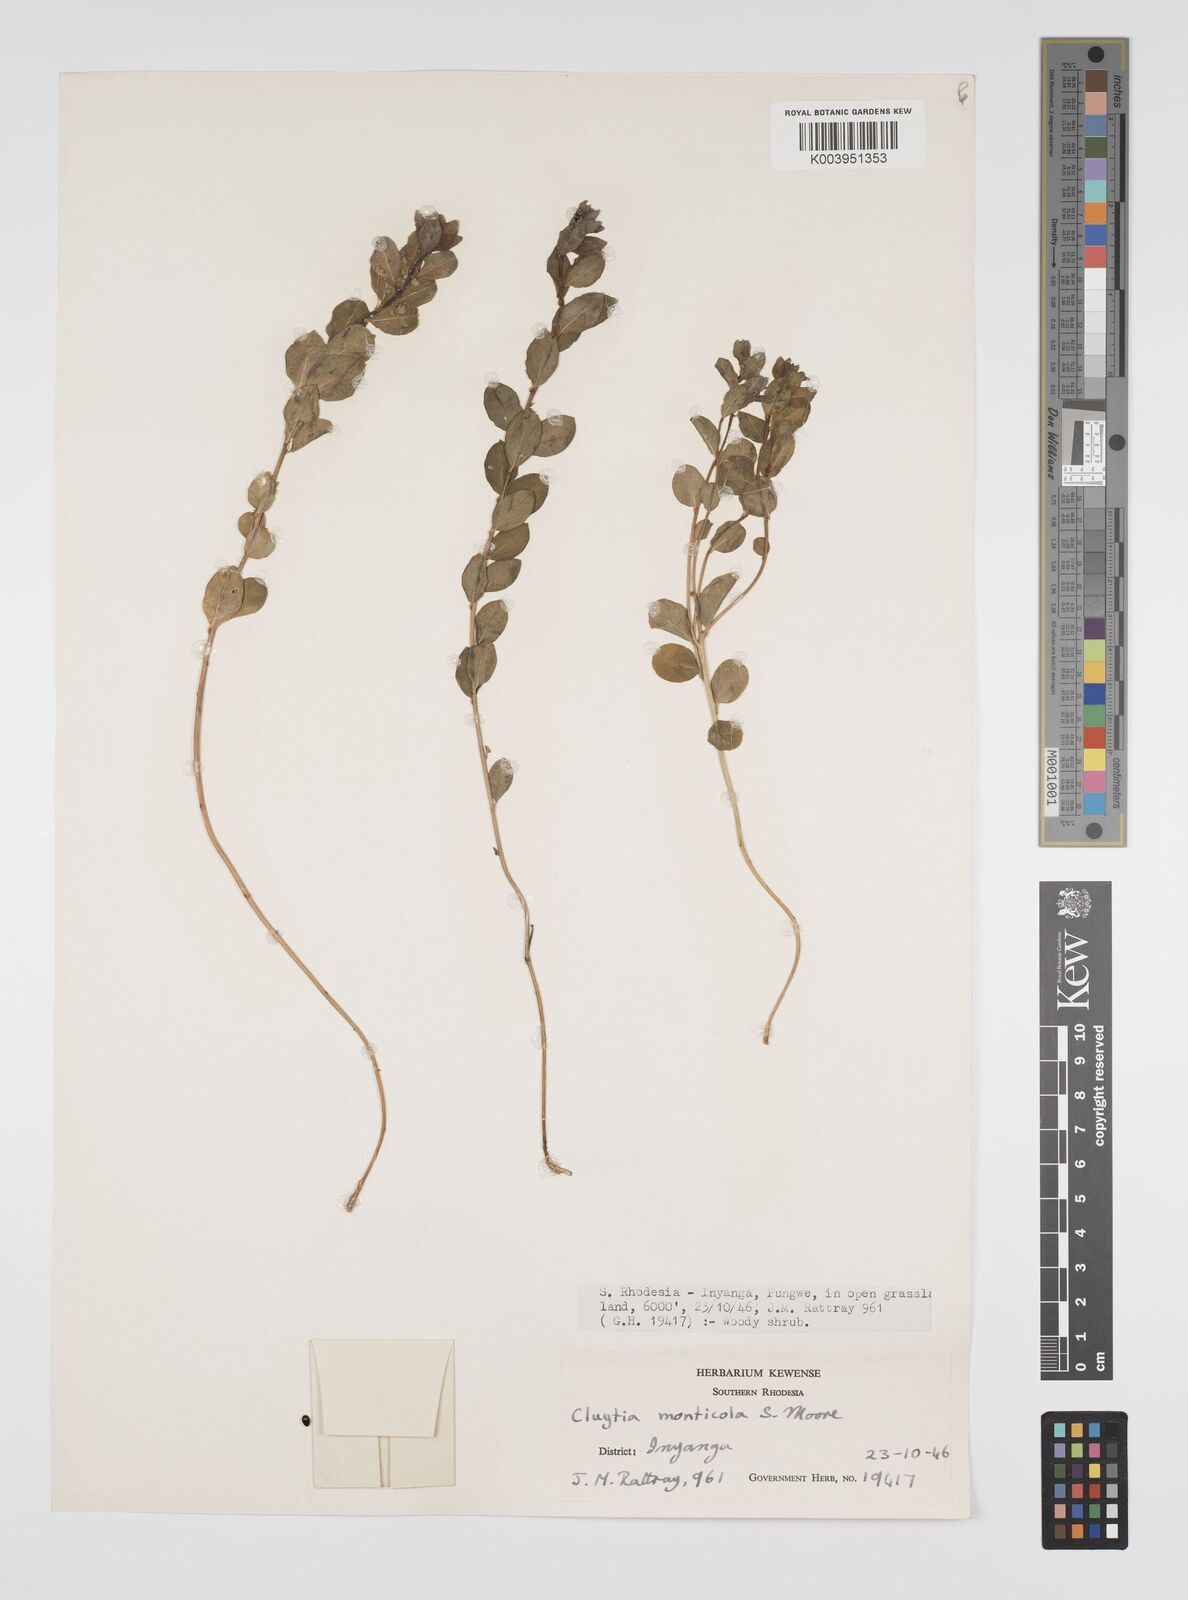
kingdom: Plantae
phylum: Tracheophyta
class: Magnoliopsida
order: Malpighiales
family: Peraceae
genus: Clutia
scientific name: Clutia monticola
